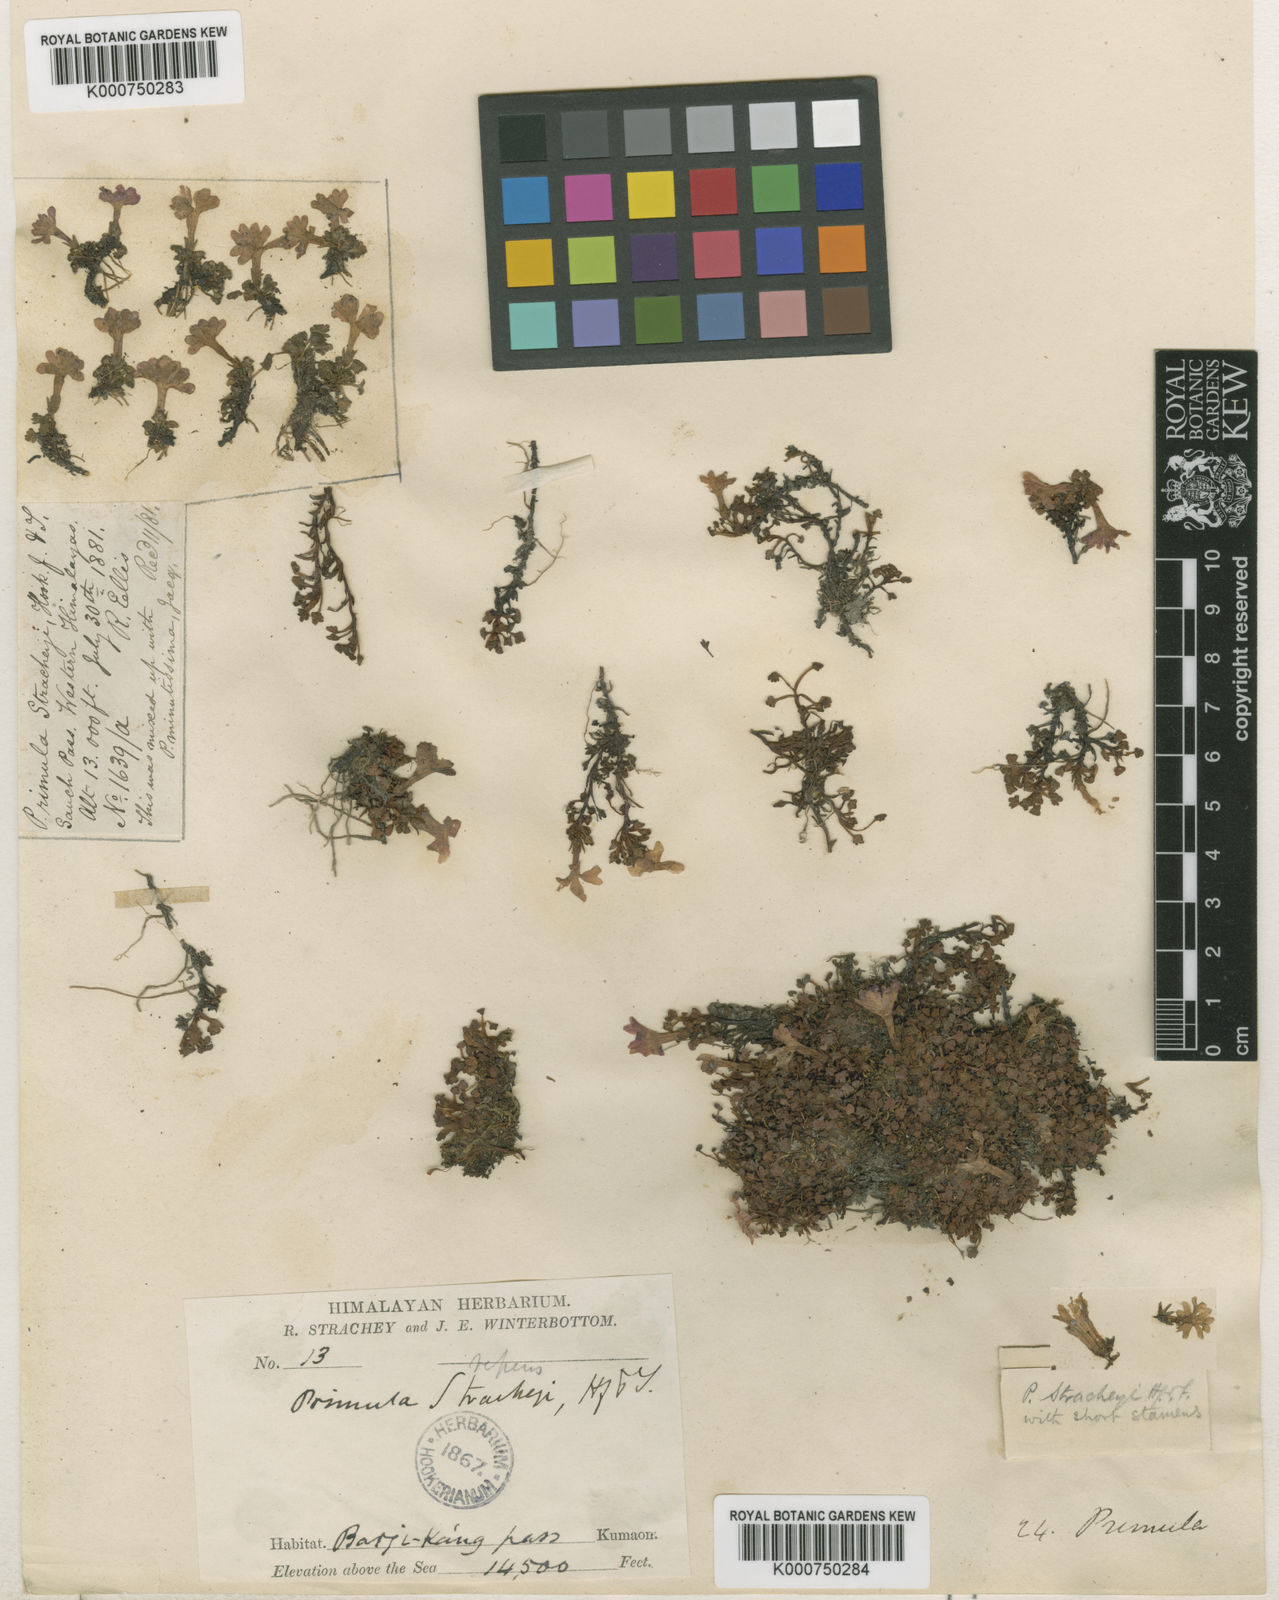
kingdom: Plantae
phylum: Tracheophyta
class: Magnoliopsida
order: Ericales
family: Primulaceae
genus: Primula
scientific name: Primula reptans
